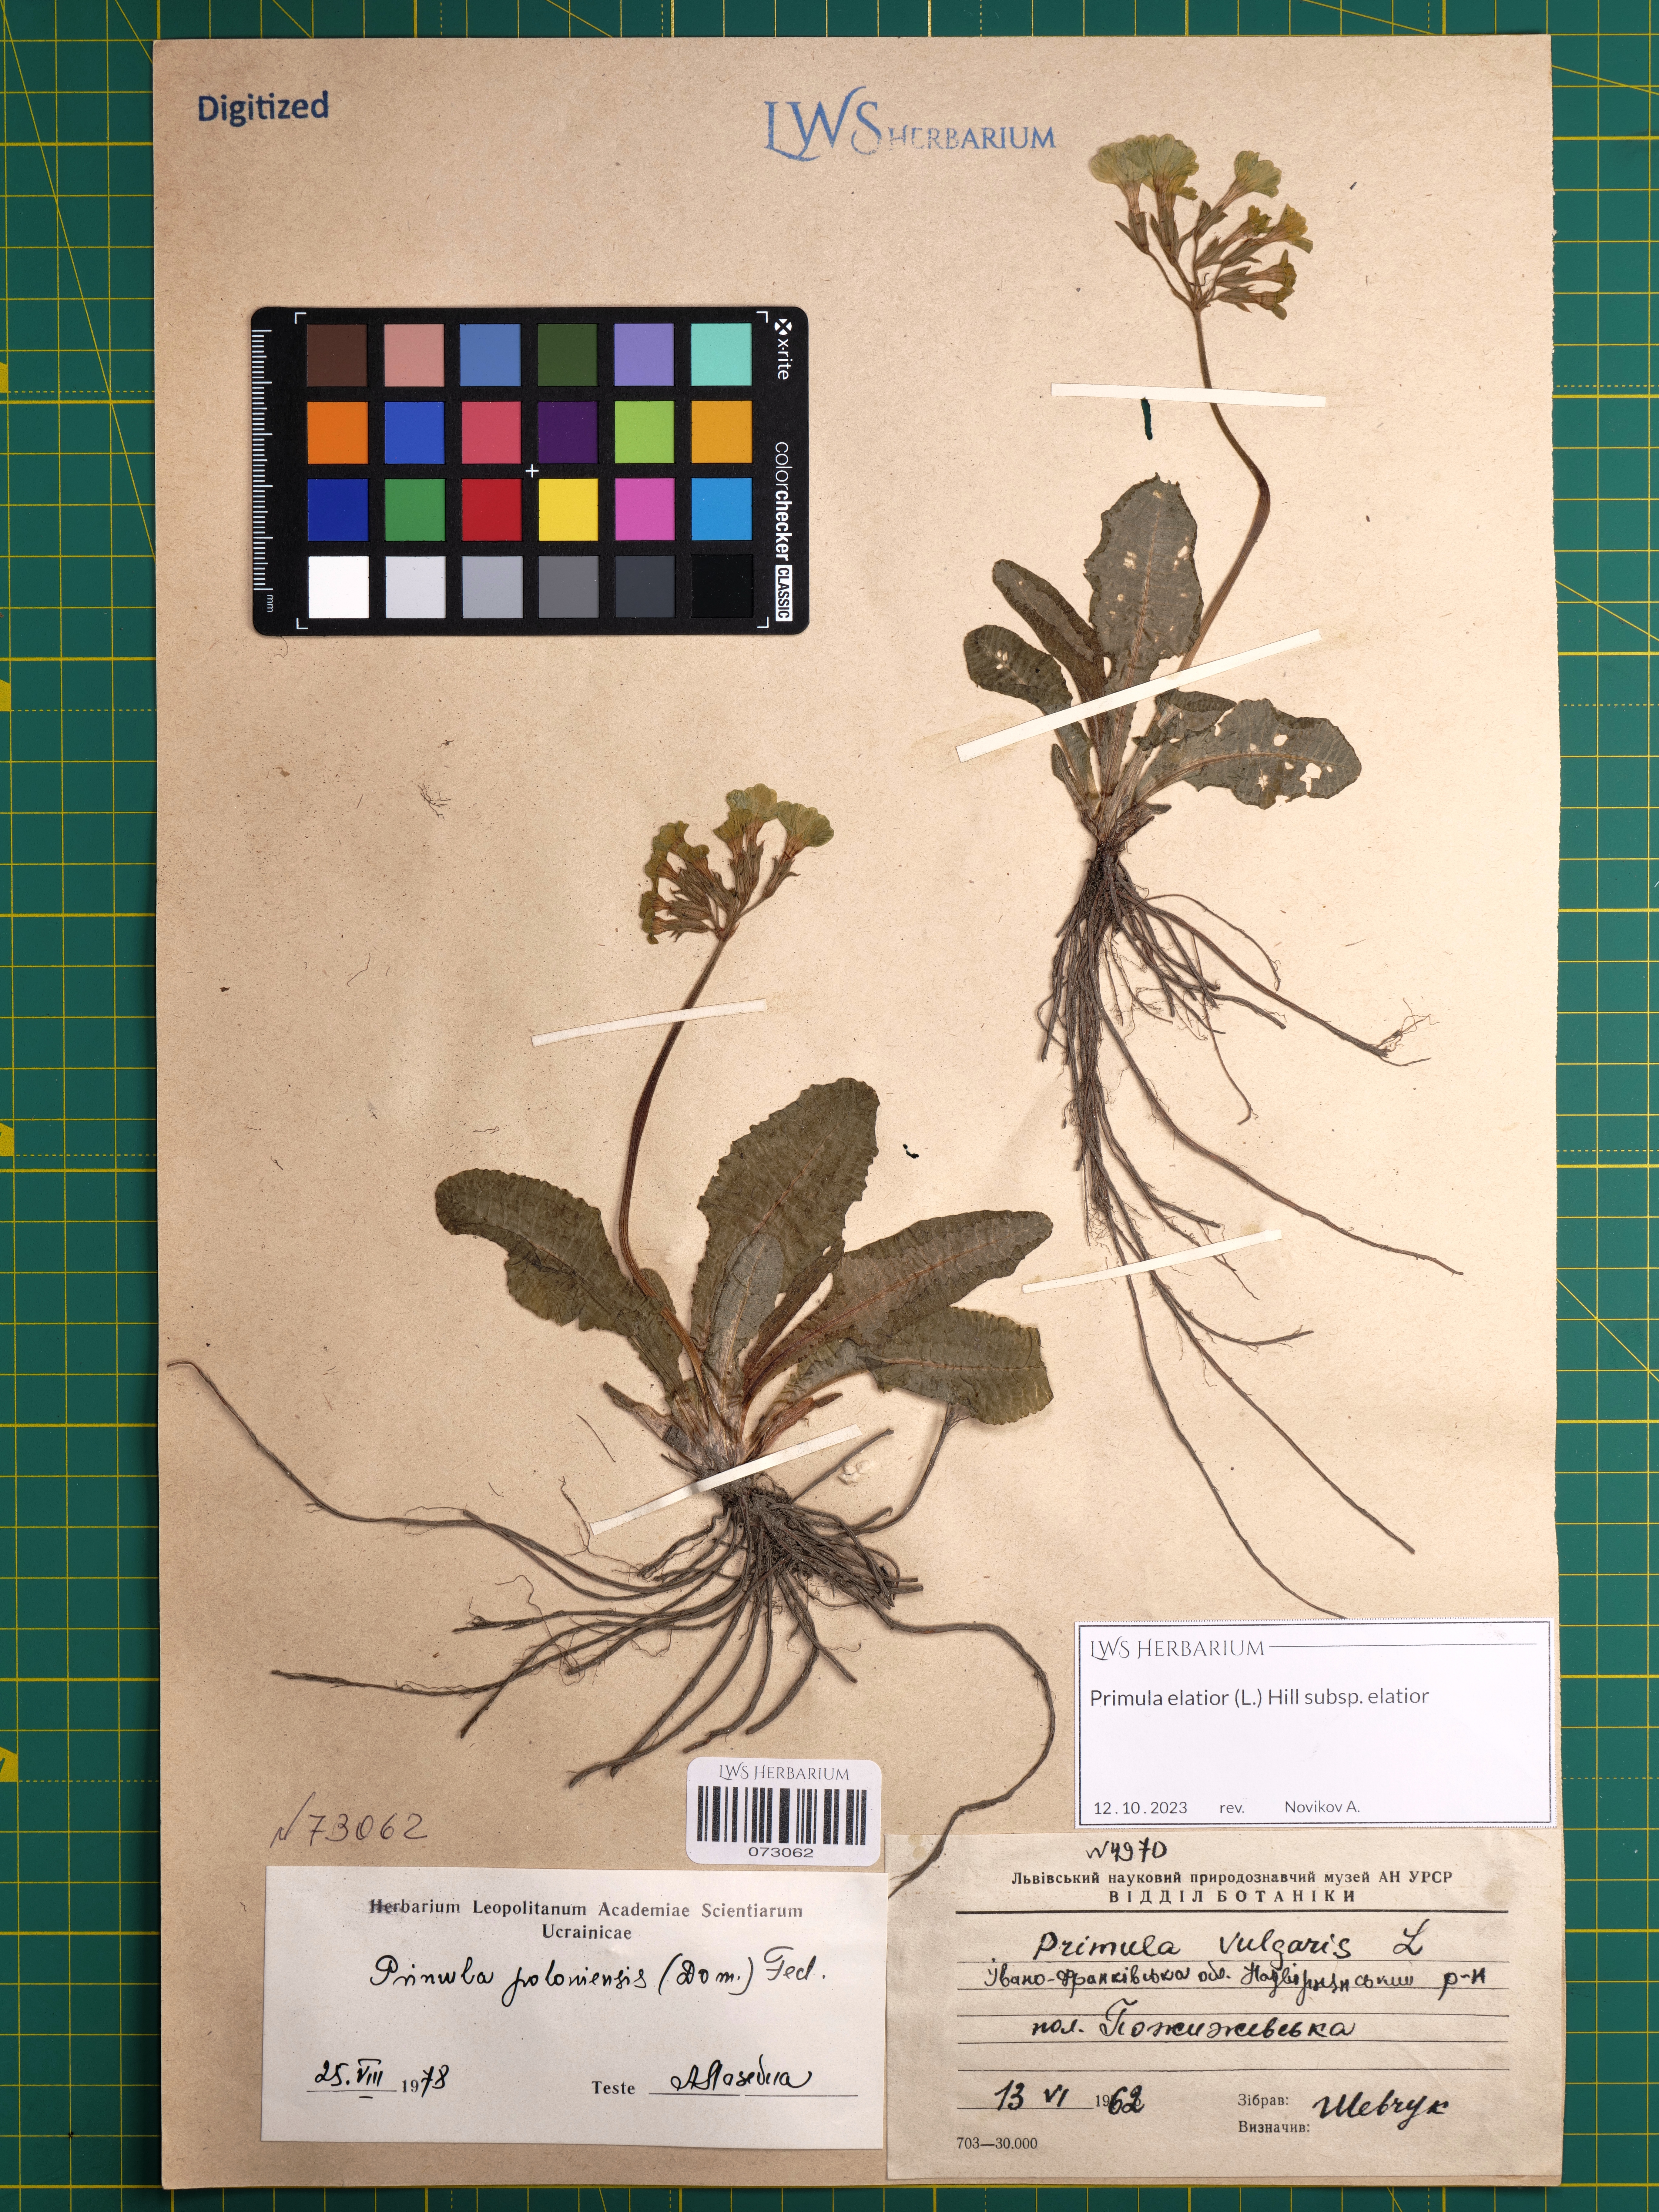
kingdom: Plantae
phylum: Tracheophyta
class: Magnoliopsida
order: Ericales
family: Primulaceae
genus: Primula
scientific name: Primula elatior
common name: Oxlip
